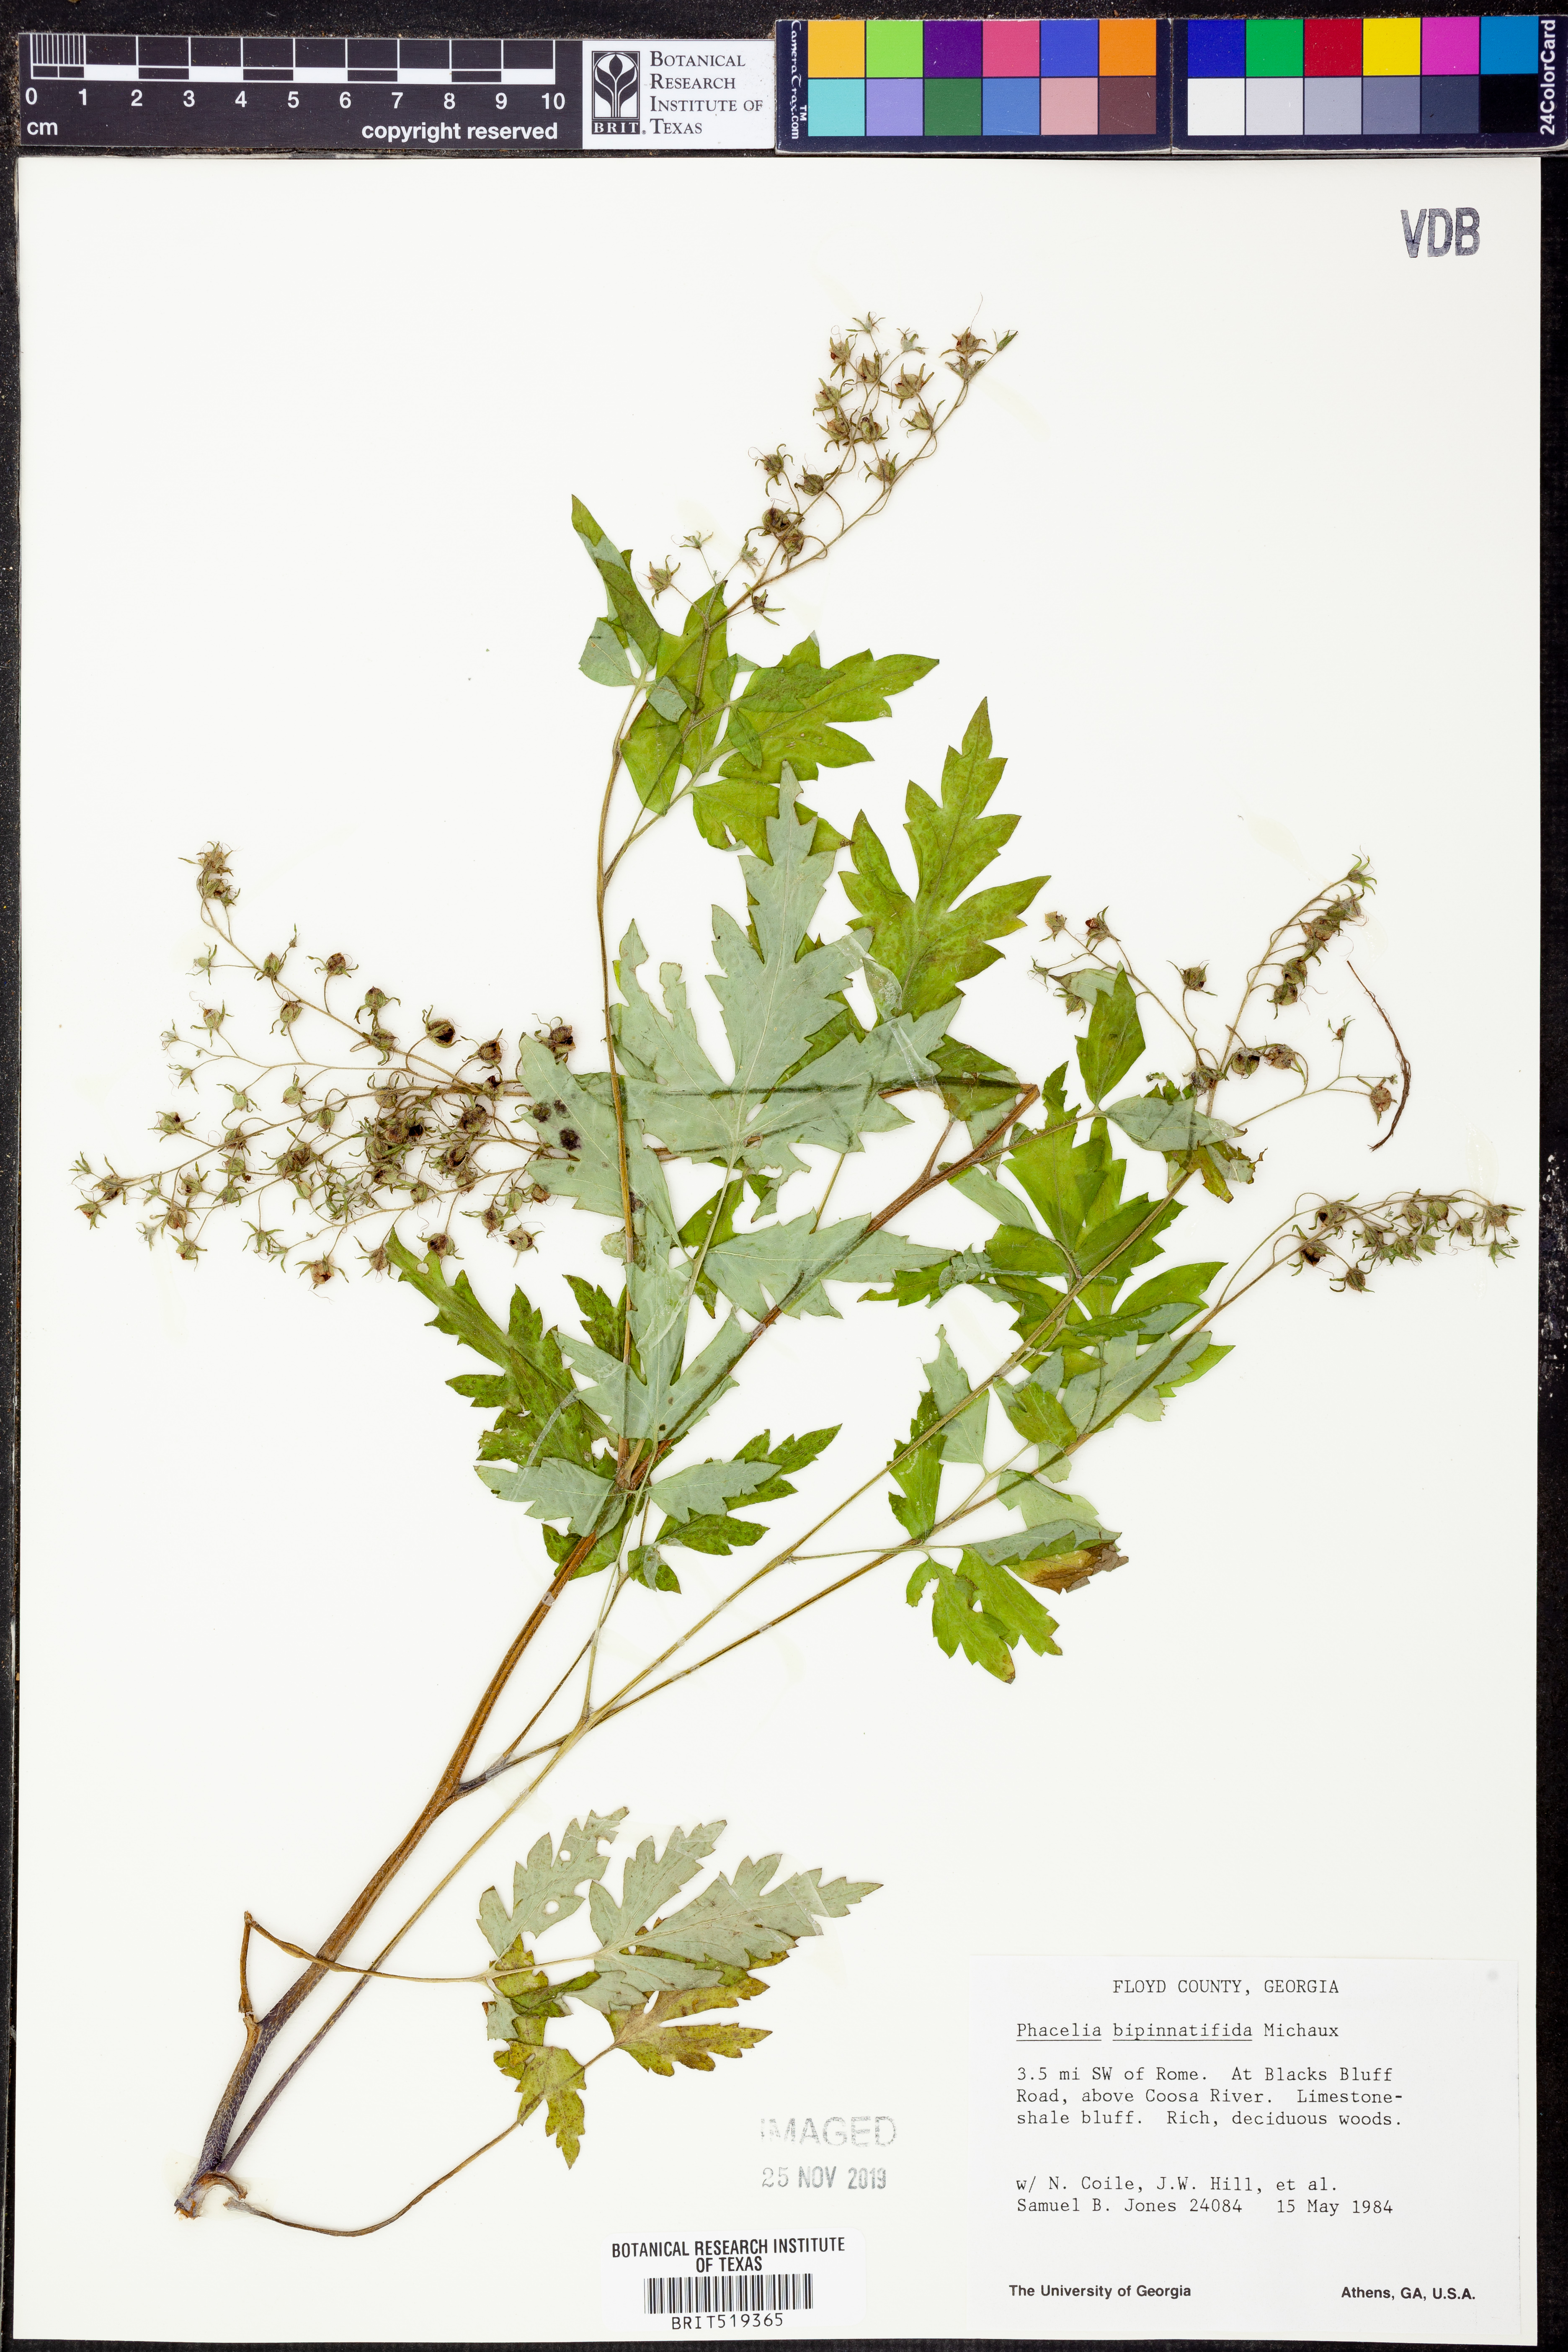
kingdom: Plantae
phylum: Tracheophyta
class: Magnoliopsida
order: Boraginales
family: Hydrophyllaceae
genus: Phacelia
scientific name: Phacelia bipinnatifida
